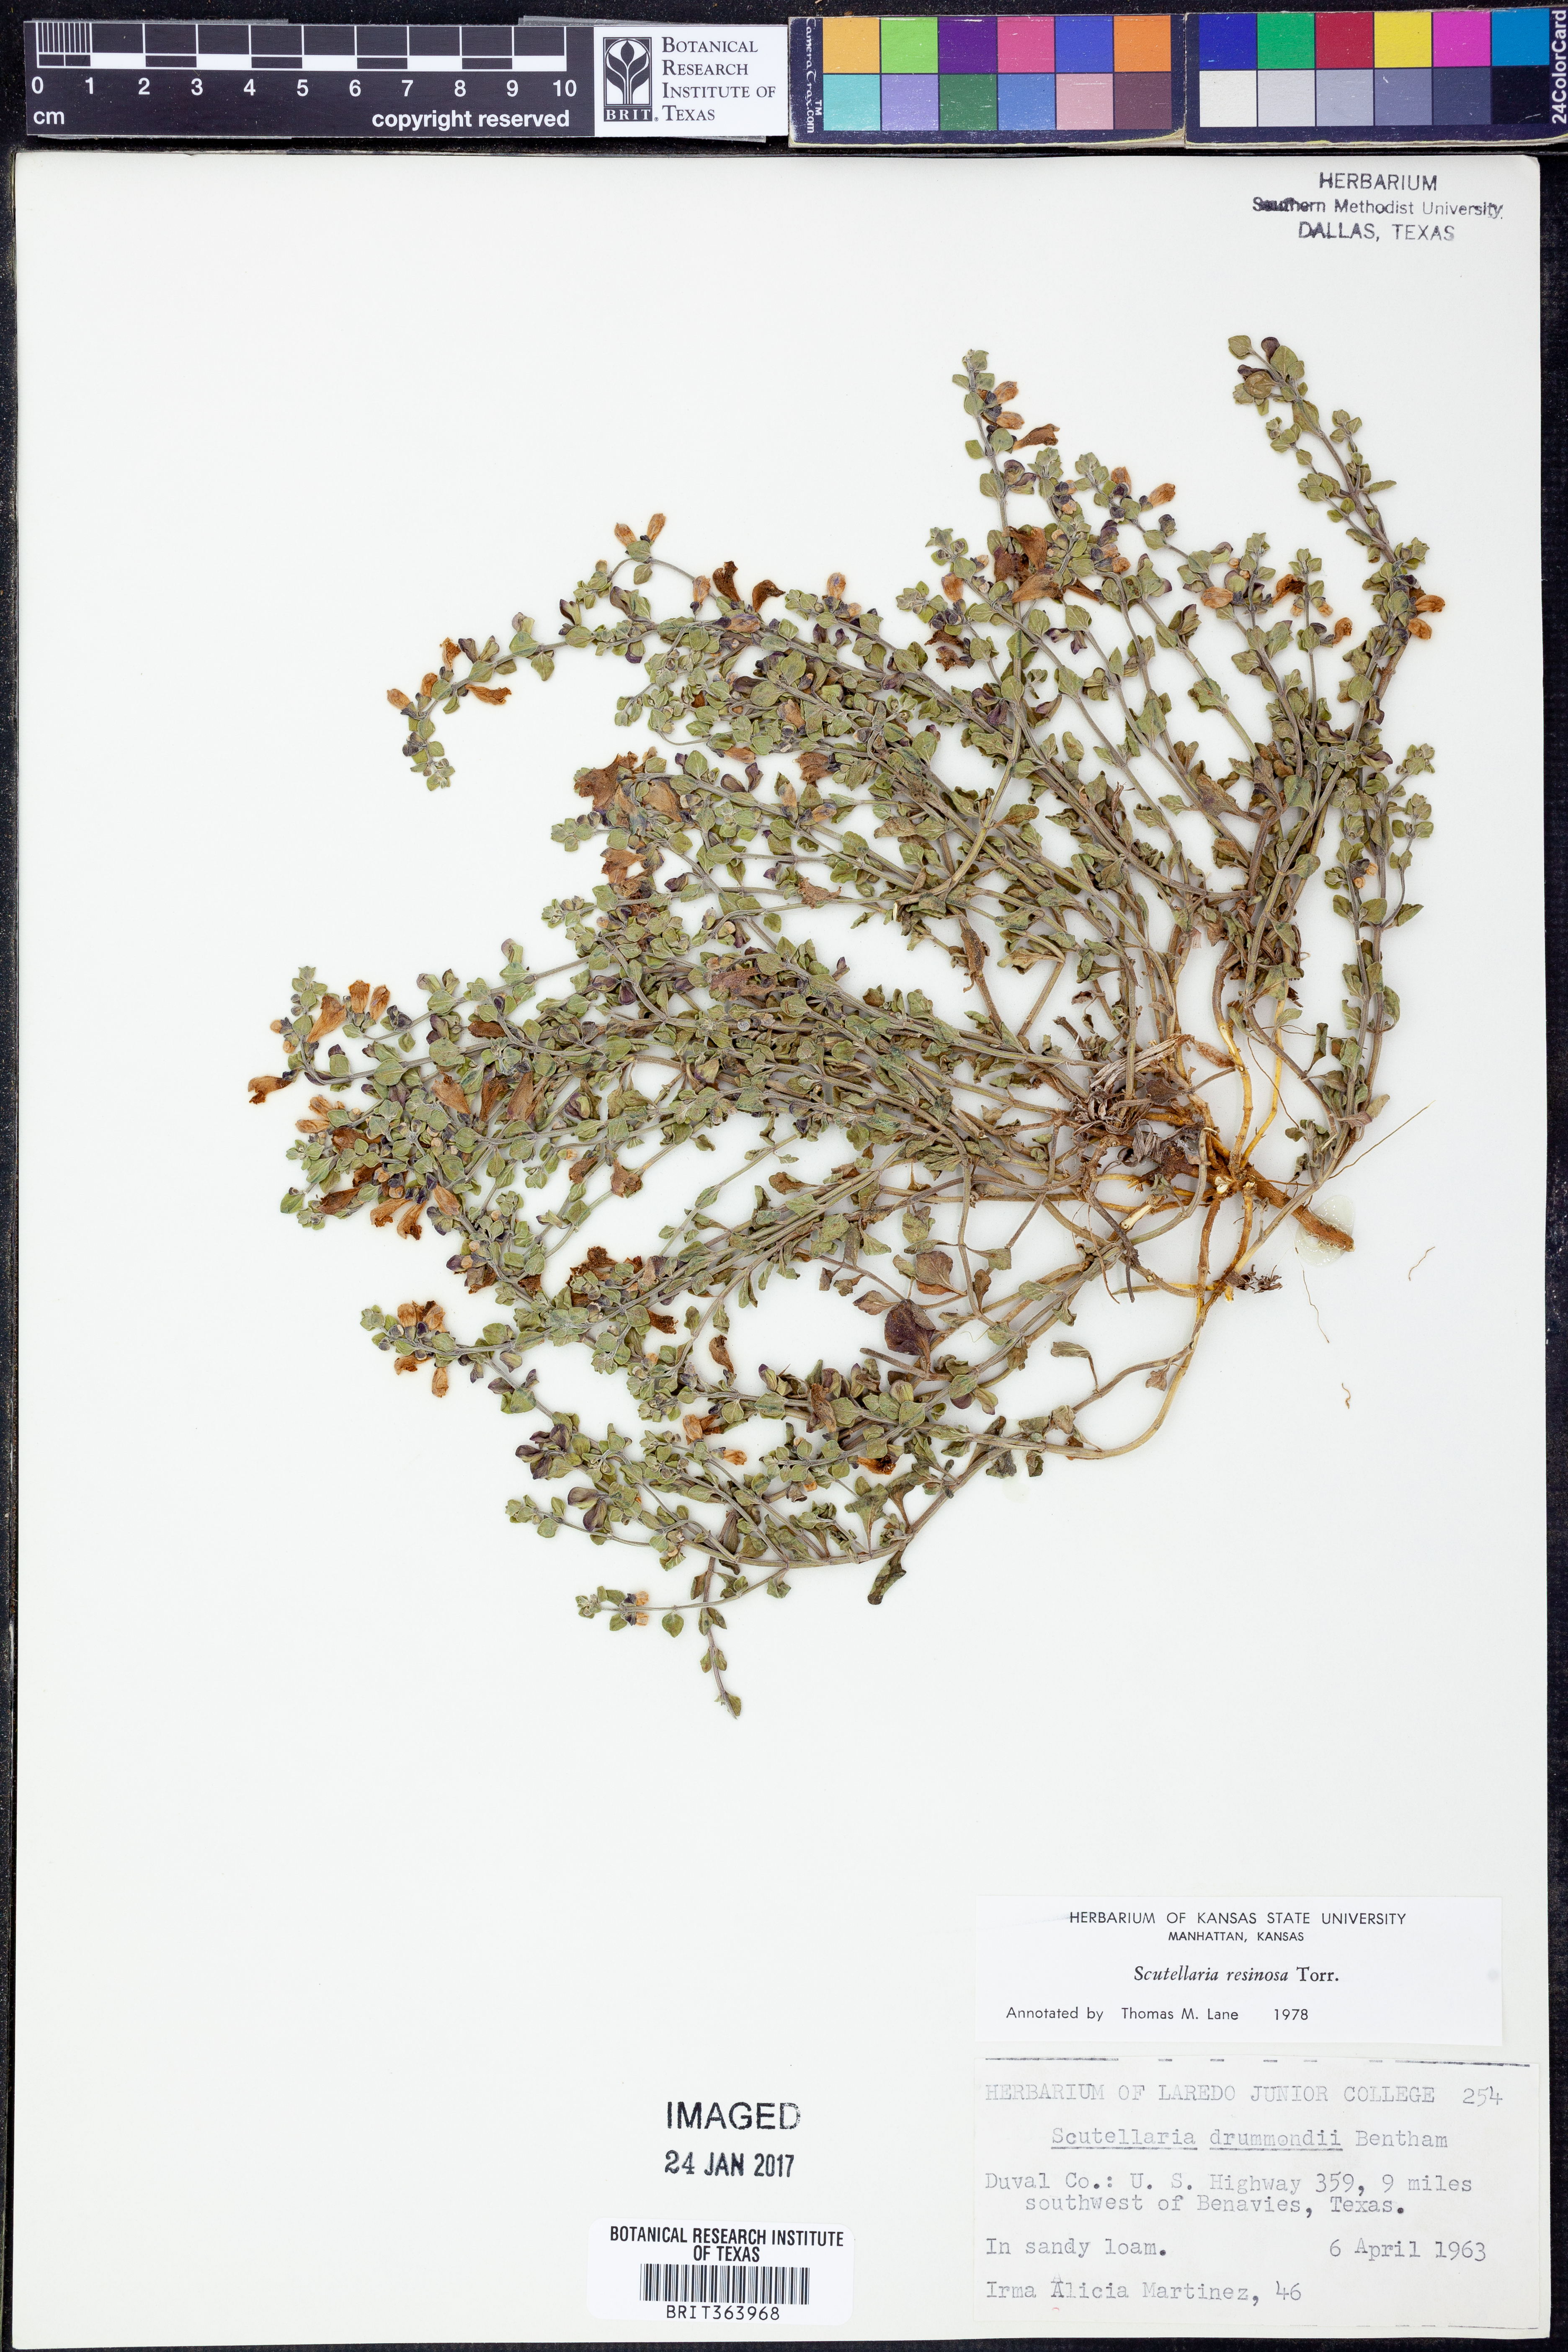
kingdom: Plantae
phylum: Tracheophyta
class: Magnoliopsida
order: Lamiales
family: Lamiaceae
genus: Scutellaria
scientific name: Scutellaria resinosa
